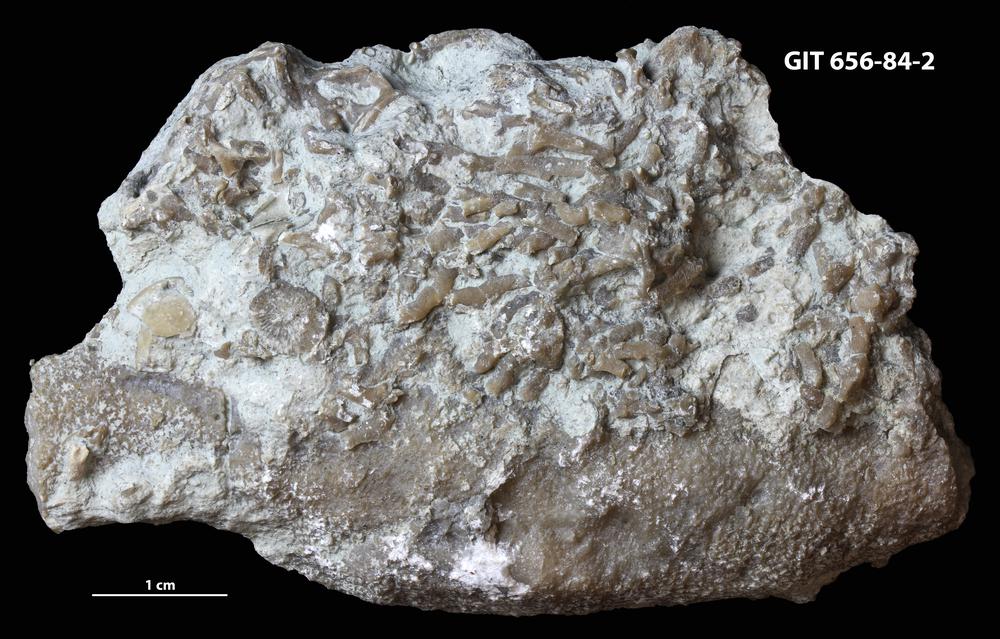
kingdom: Animalia
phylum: Cnidaria
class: Anthozoa
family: Auloporidae
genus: Aulopora
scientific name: Aulopora
